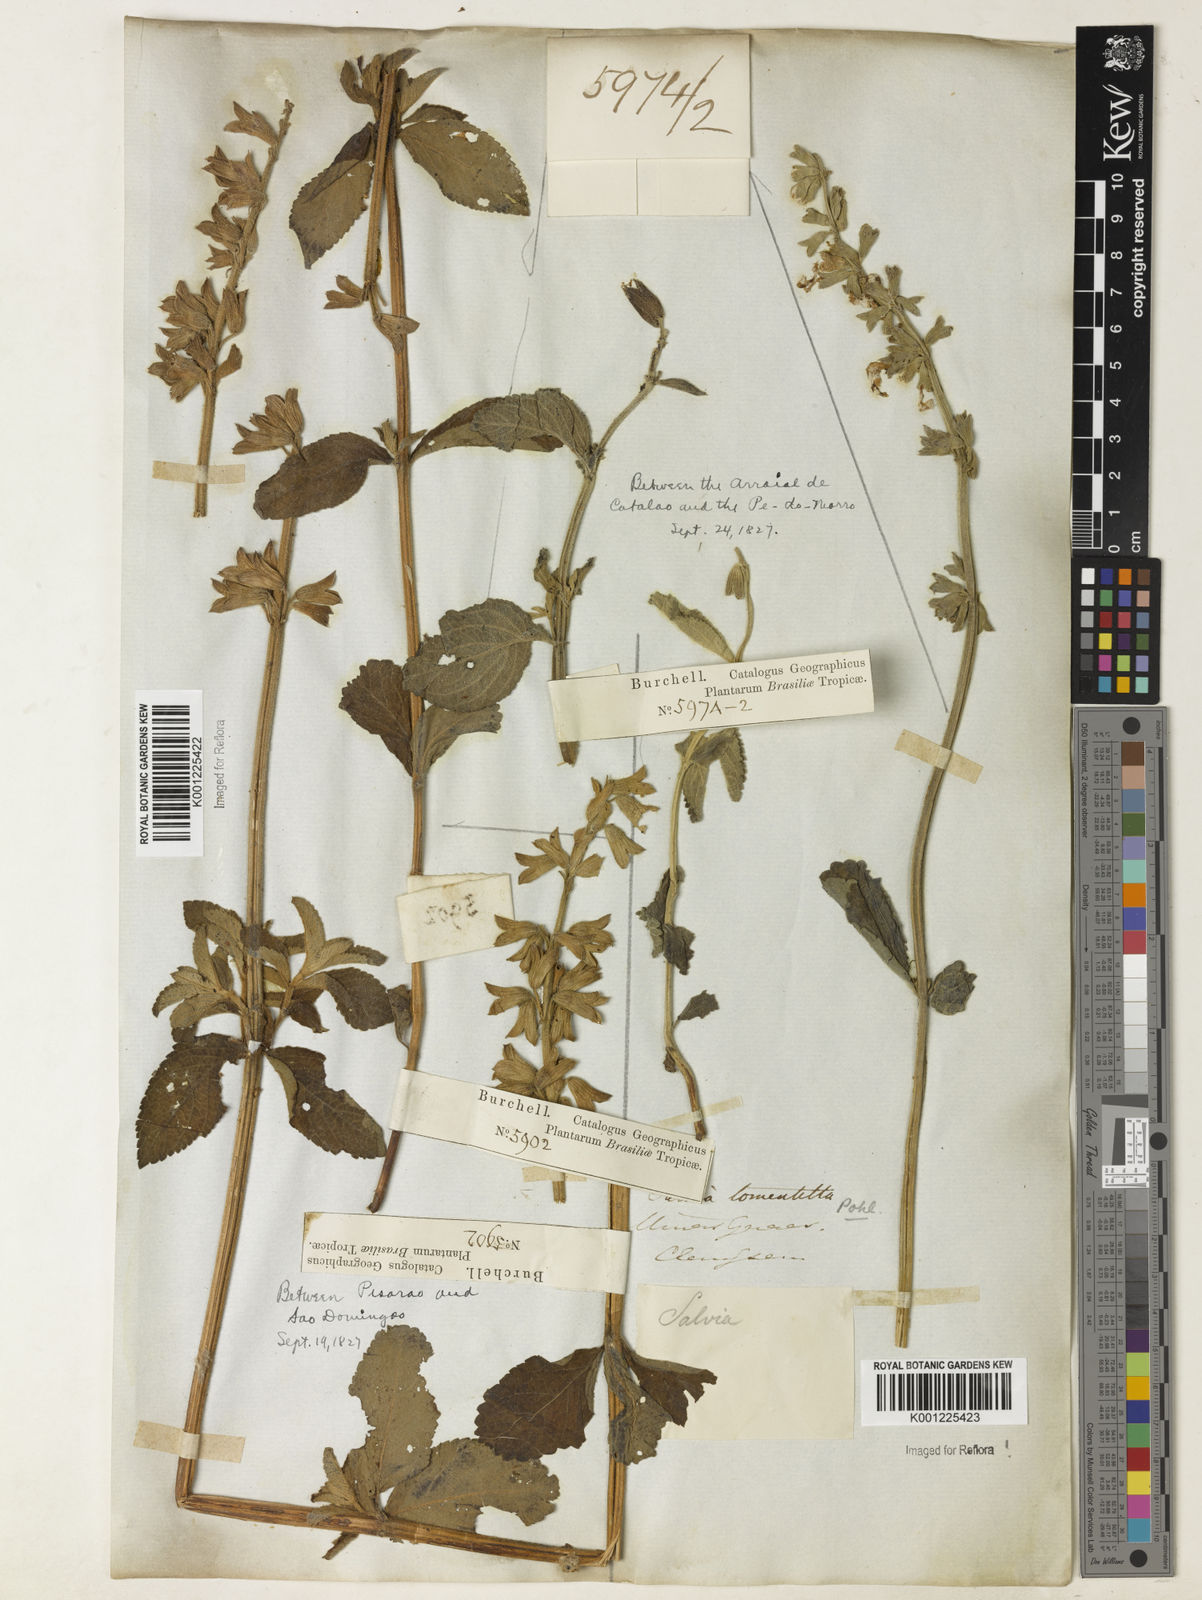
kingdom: Plantae
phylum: Tracheophyta
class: Magnoliopsida
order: Lamiales
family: Lamiaceae
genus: Salvia
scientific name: Salvia tomentella
